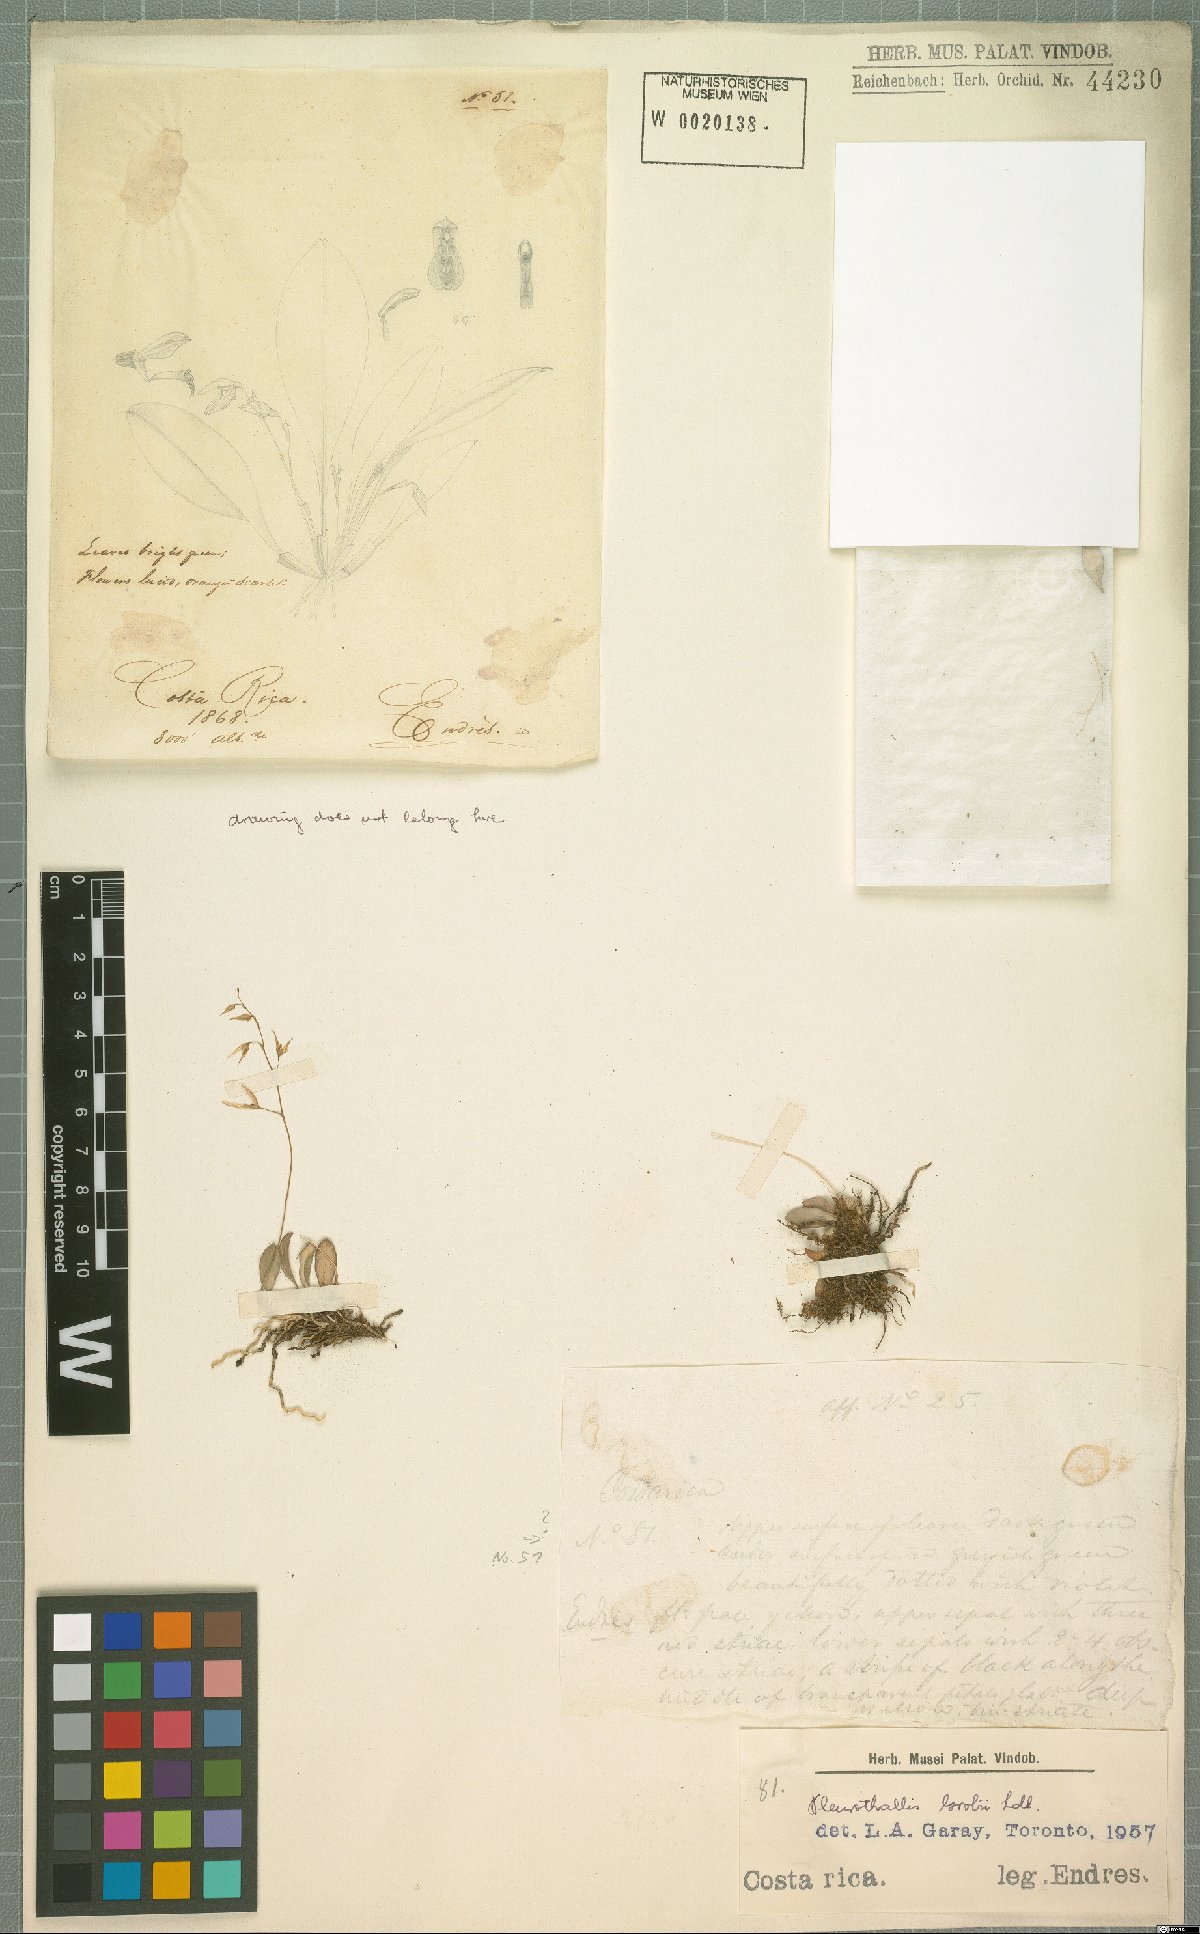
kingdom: Plantae
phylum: Tracheophyta
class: Liliopsida
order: Asparagales
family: Orchidaceae
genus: Specklinia
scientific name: Specklinia grobyi
